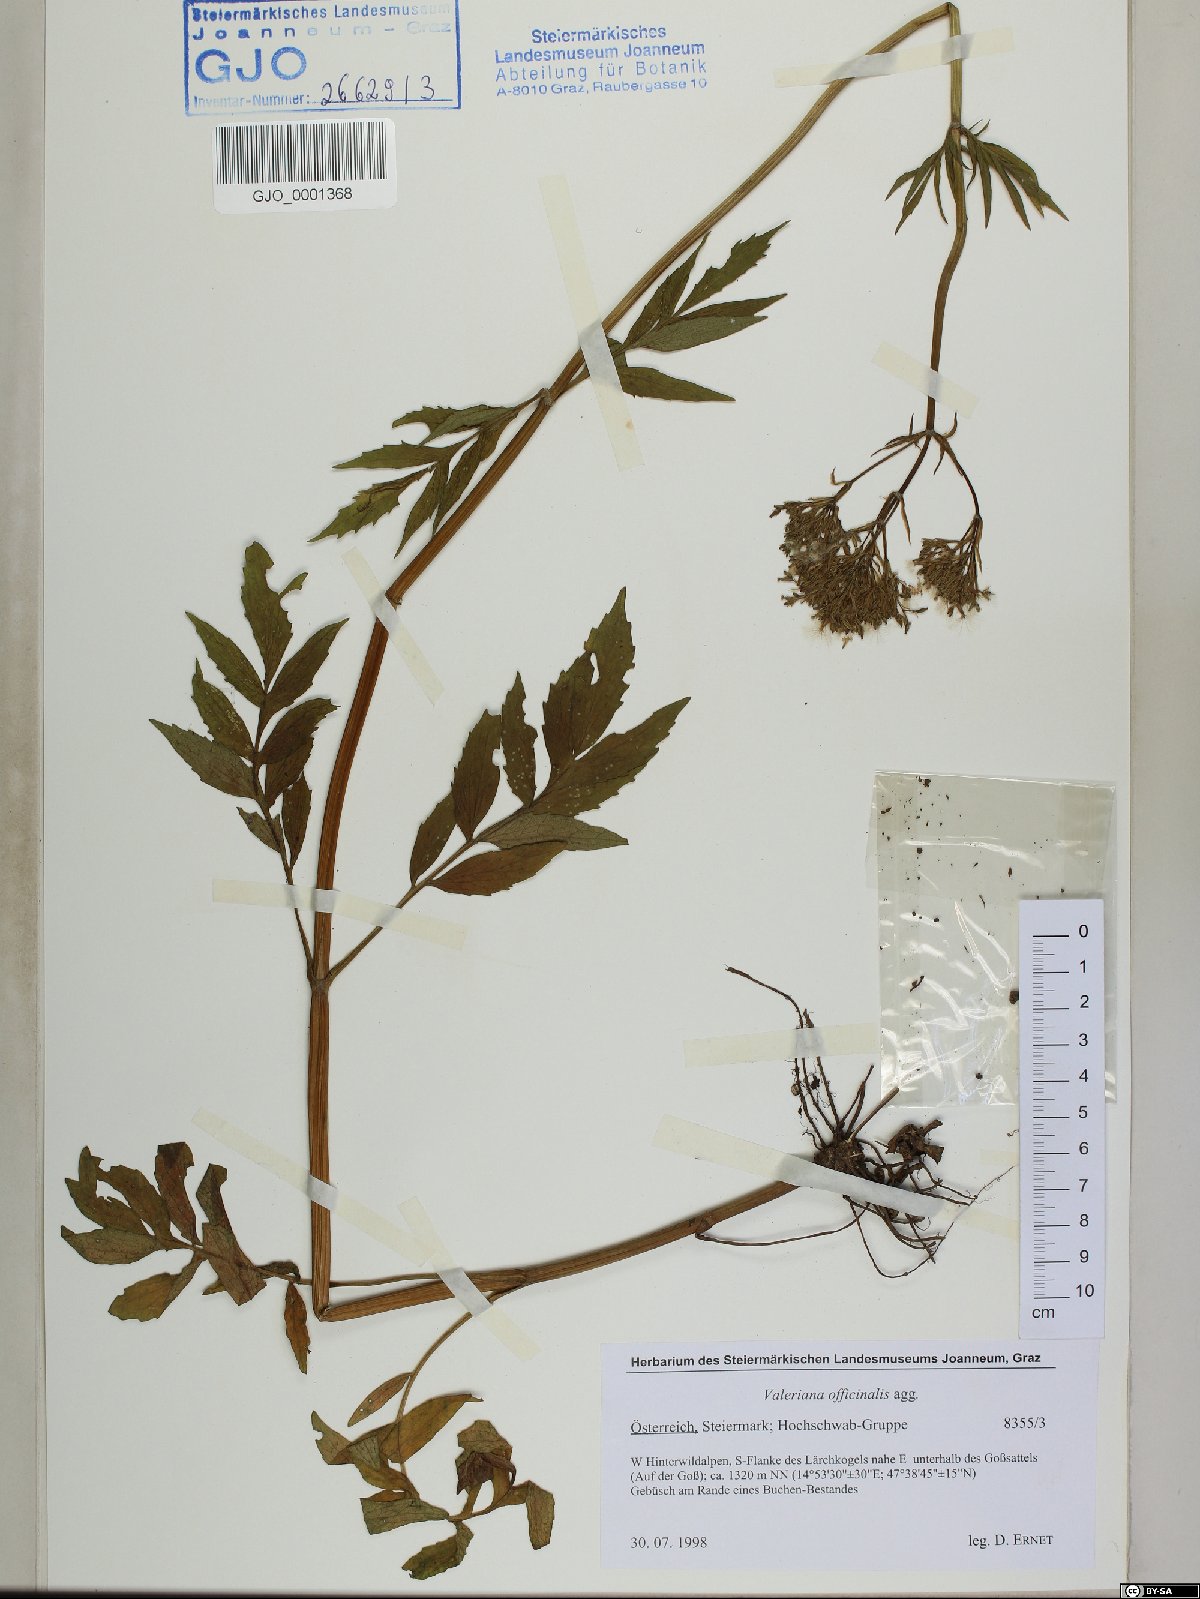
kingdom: Plantae
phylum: Tracheophyta
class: Magnoliopsida
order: Dipsacales
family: Caprifoliaceae
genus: Valeriana
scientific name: Valeriana officinalis
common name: Common valerian
